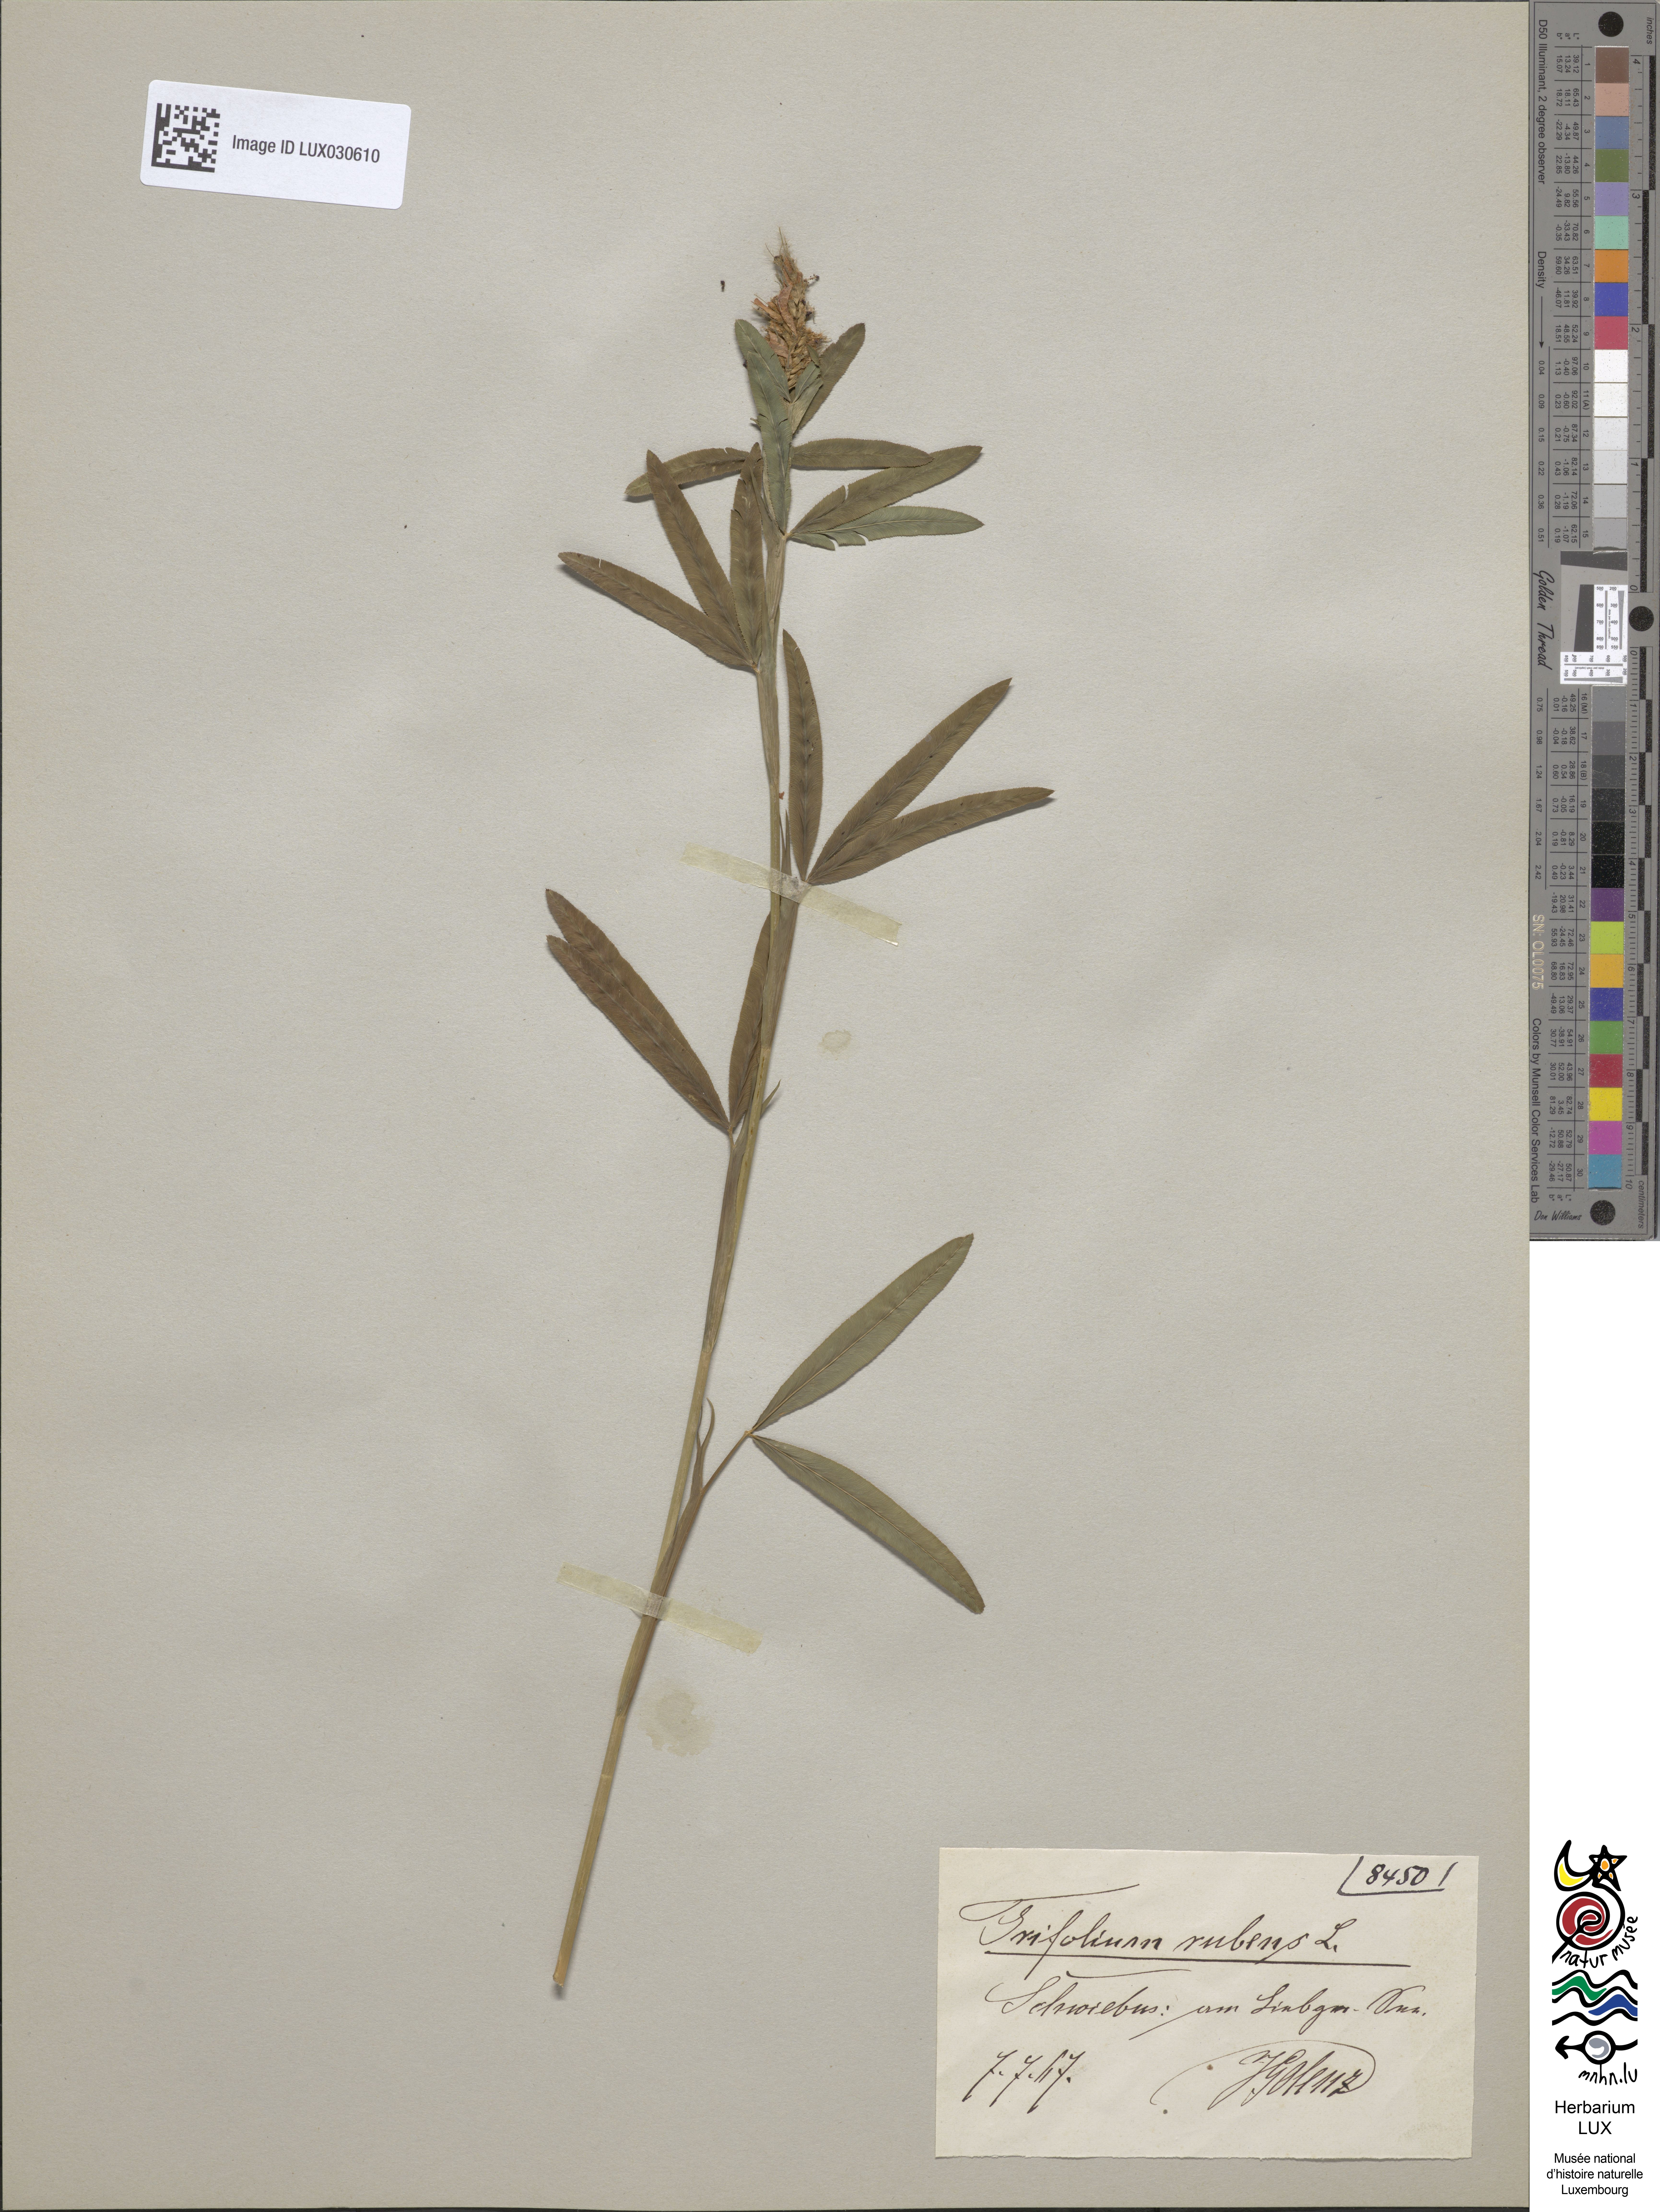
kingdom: Plantae
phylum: Tracheophyta
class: Magnoliopsida
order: Fabales
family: Fabaceae
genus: Trifolium
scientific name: Trifolium rubens
